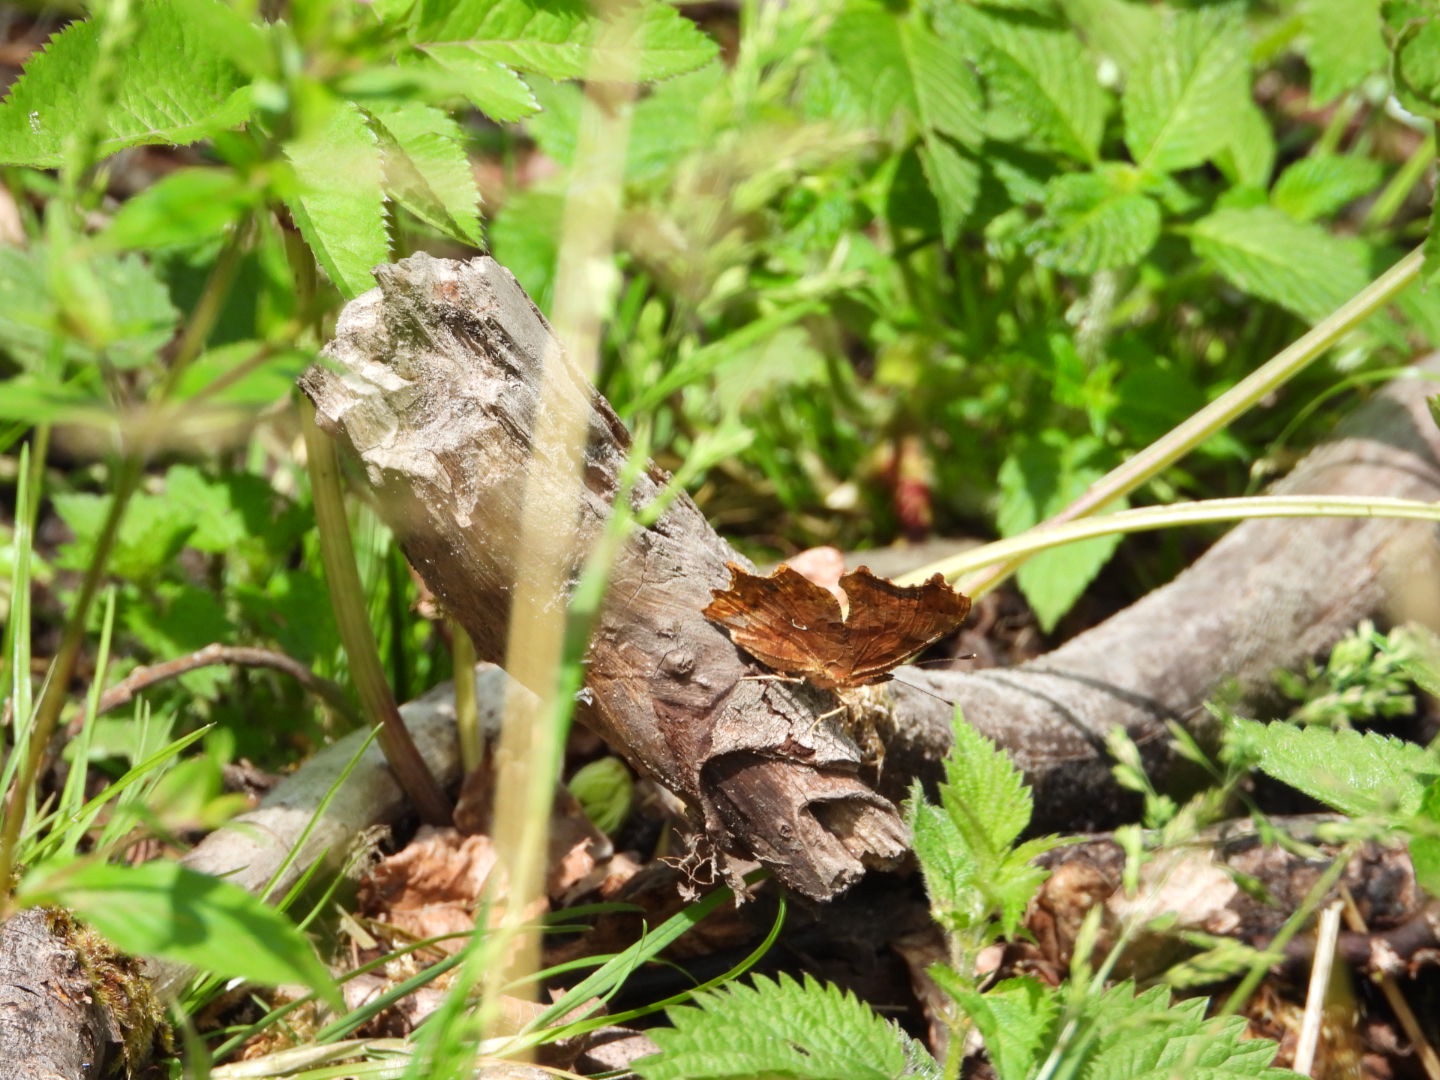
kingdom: Animalia
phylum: Arthropoda
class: Insecta
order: Lepidoptera
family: Nymphalidae
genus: Polygonia
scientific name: Polygonia c-album
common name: Det hvide C
